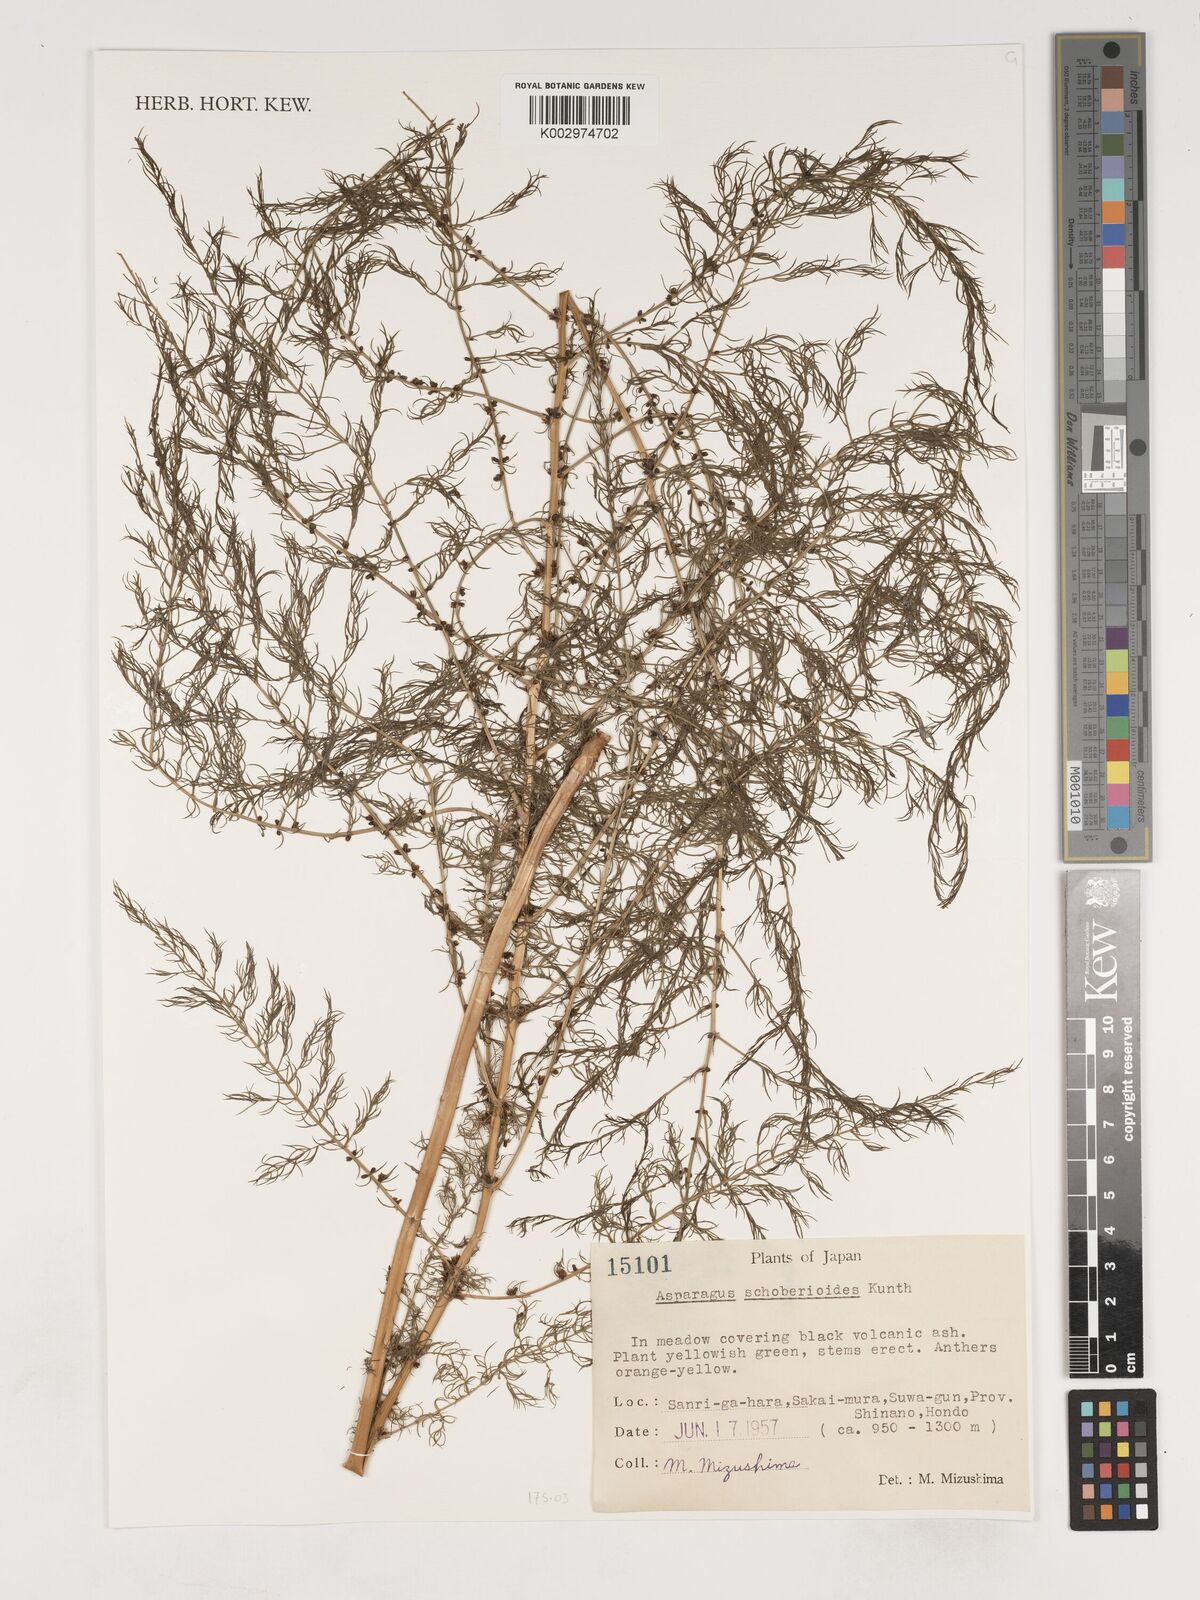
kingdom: Plantae
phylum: Tracheophyta
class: Liliopsida
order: Asparagales
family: Asparagaceae
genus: Asparagus
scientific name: Asparagus schoberioides
